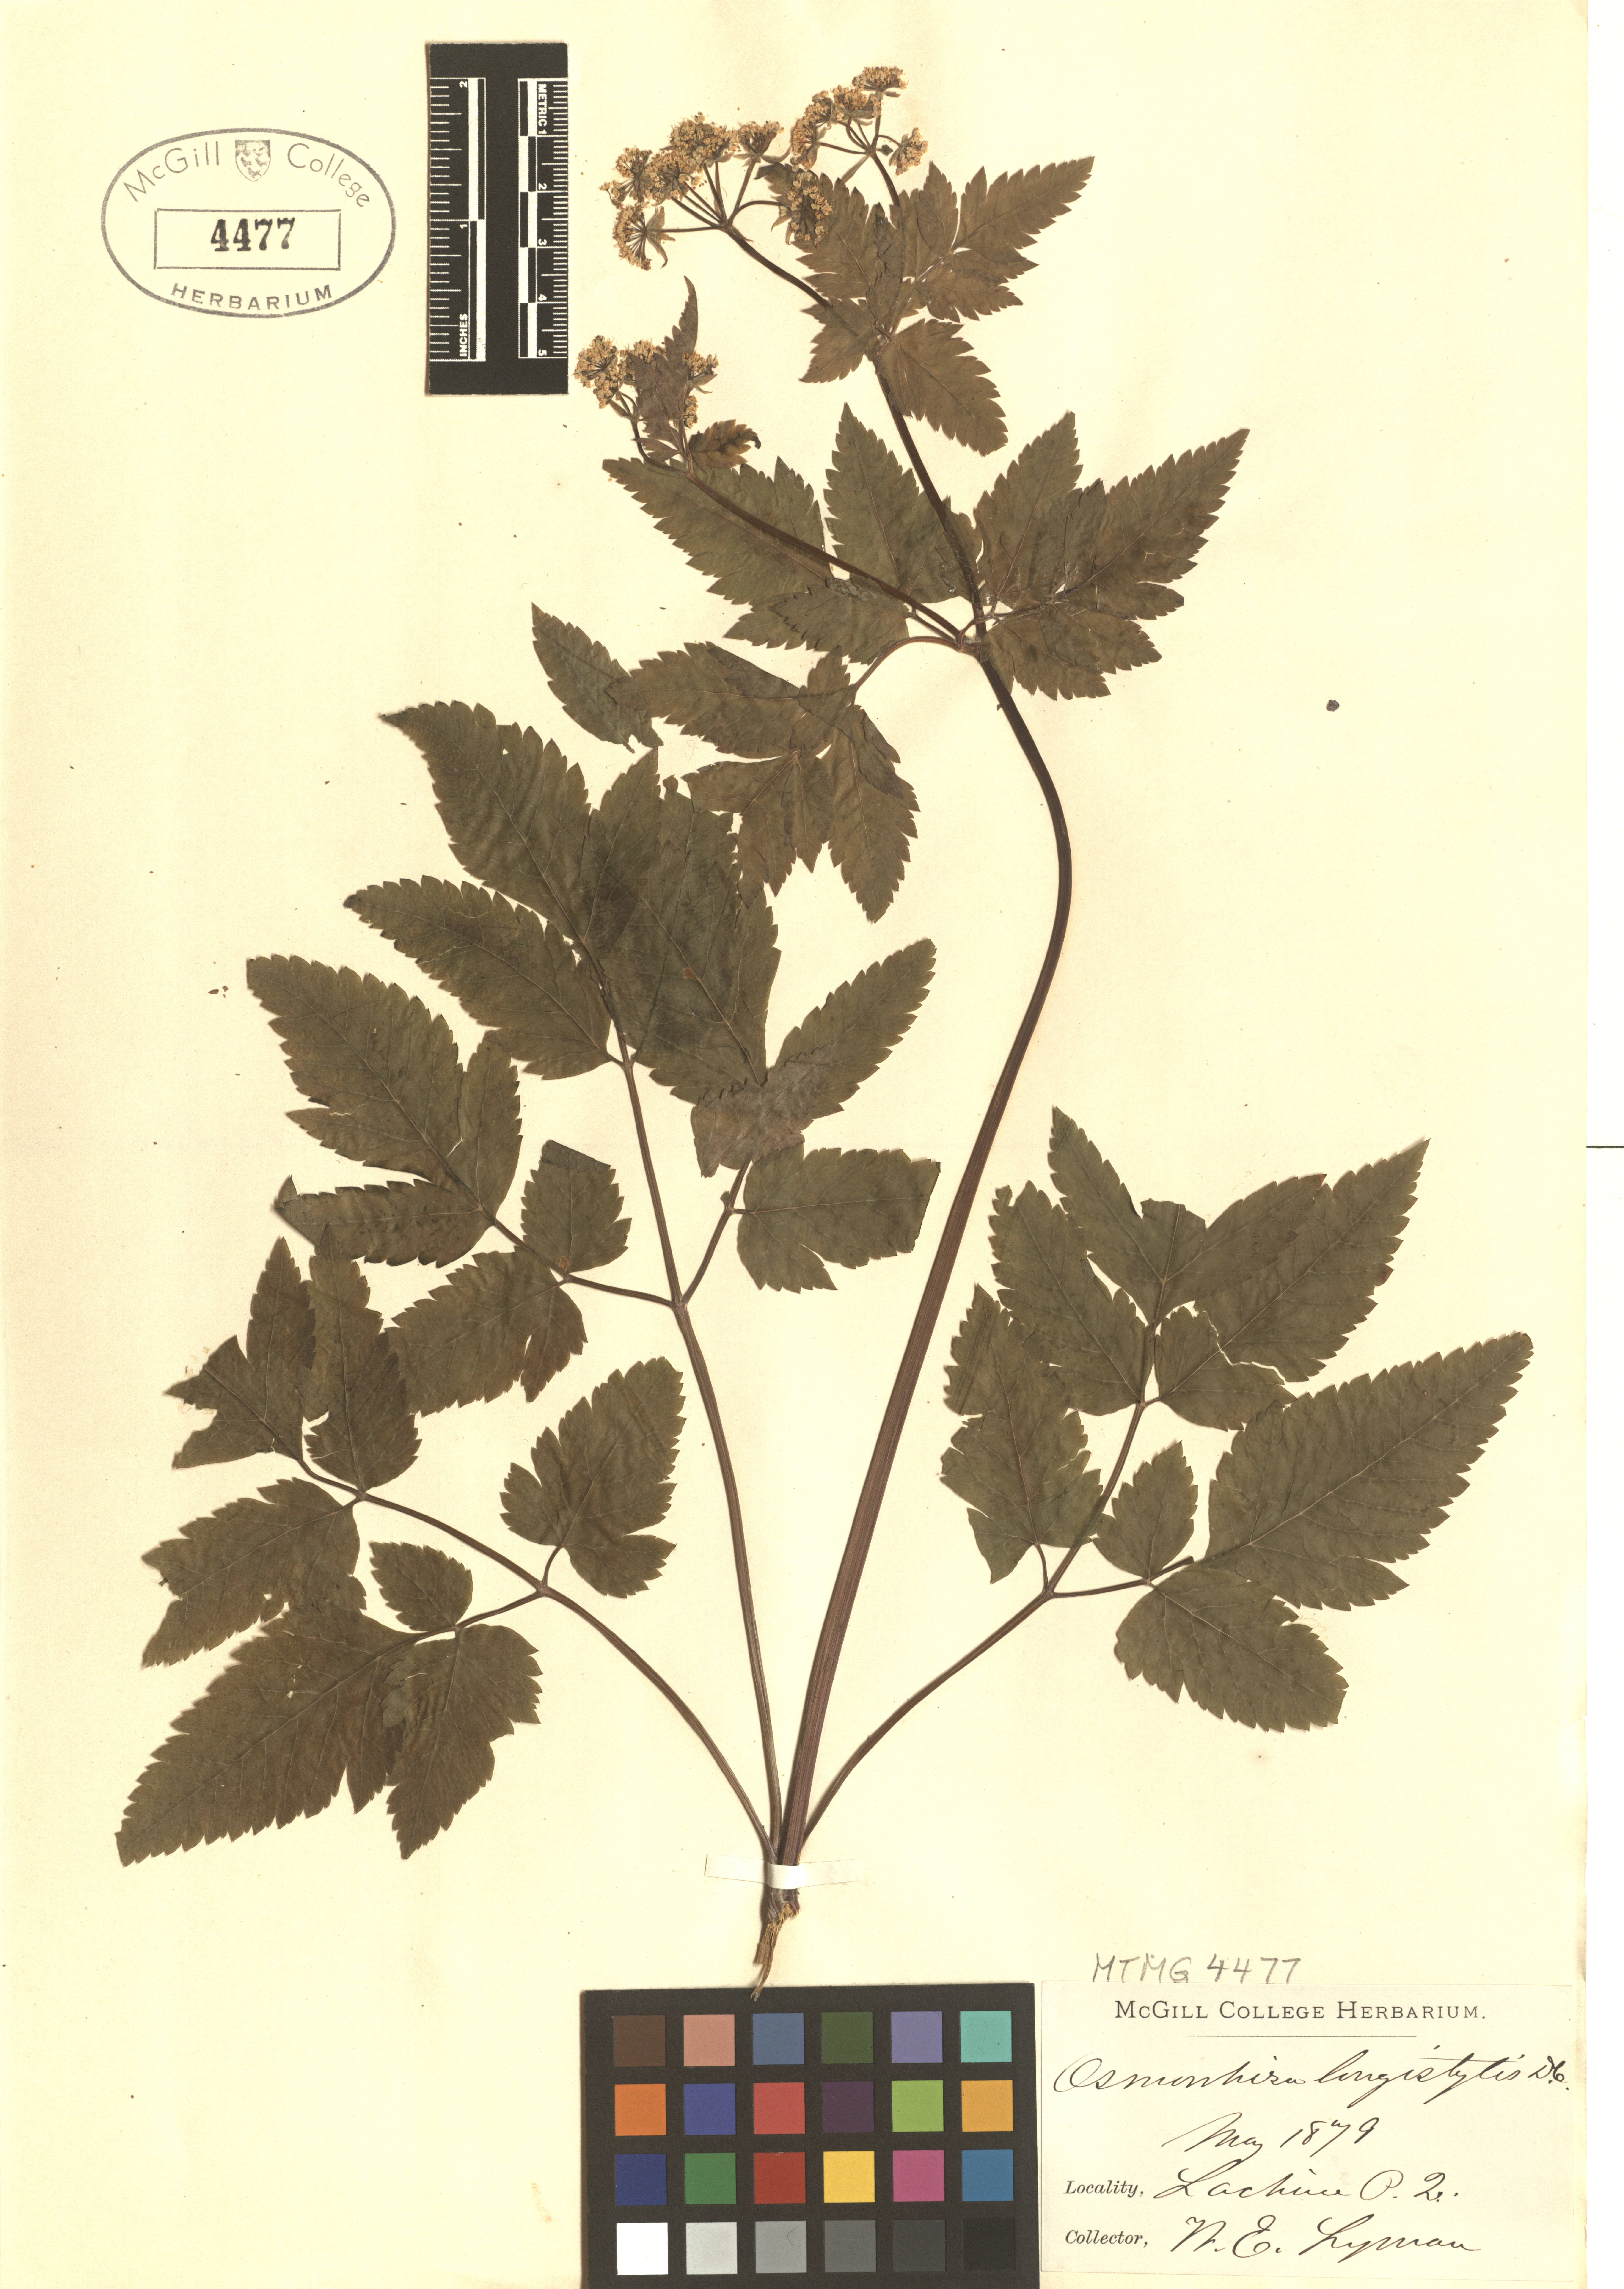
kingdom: Plantae
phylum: Tracheophyta
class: Magnoliopsida
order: Apiales
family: Apiaceae
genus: Osmorhiza
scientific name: Osmorhiza longistylis
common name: Smooth sweet cicely
